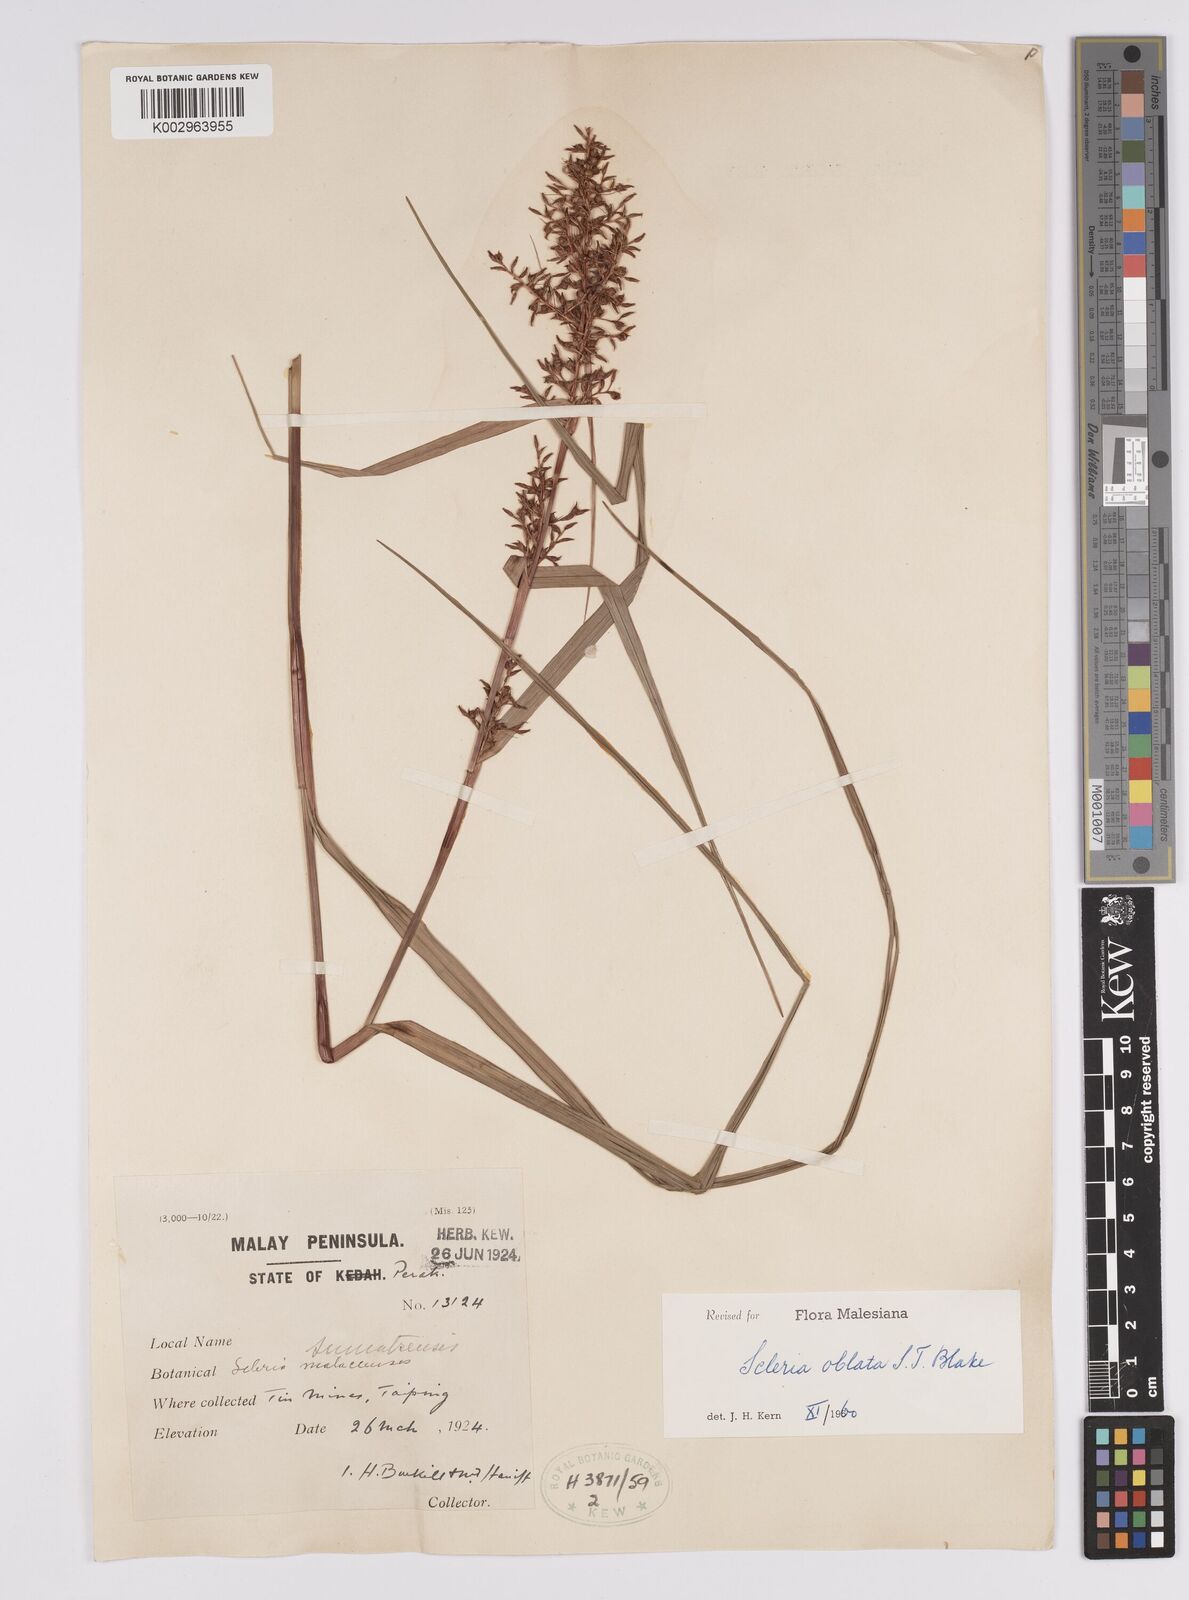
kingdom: Plantae
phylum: Tracheophyta
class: Liliopsida
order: Poales
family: Cyperaceae
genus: Scleria
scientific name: Scleria oblata
